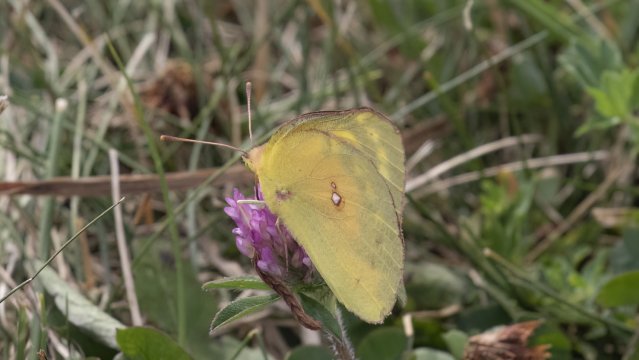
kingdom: Animalia
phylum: Arthropoda
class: Insecta
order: Lepidoptera
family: Pieridae
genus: Colias
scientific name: Colias eurytheme
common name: Orange Sulphur
